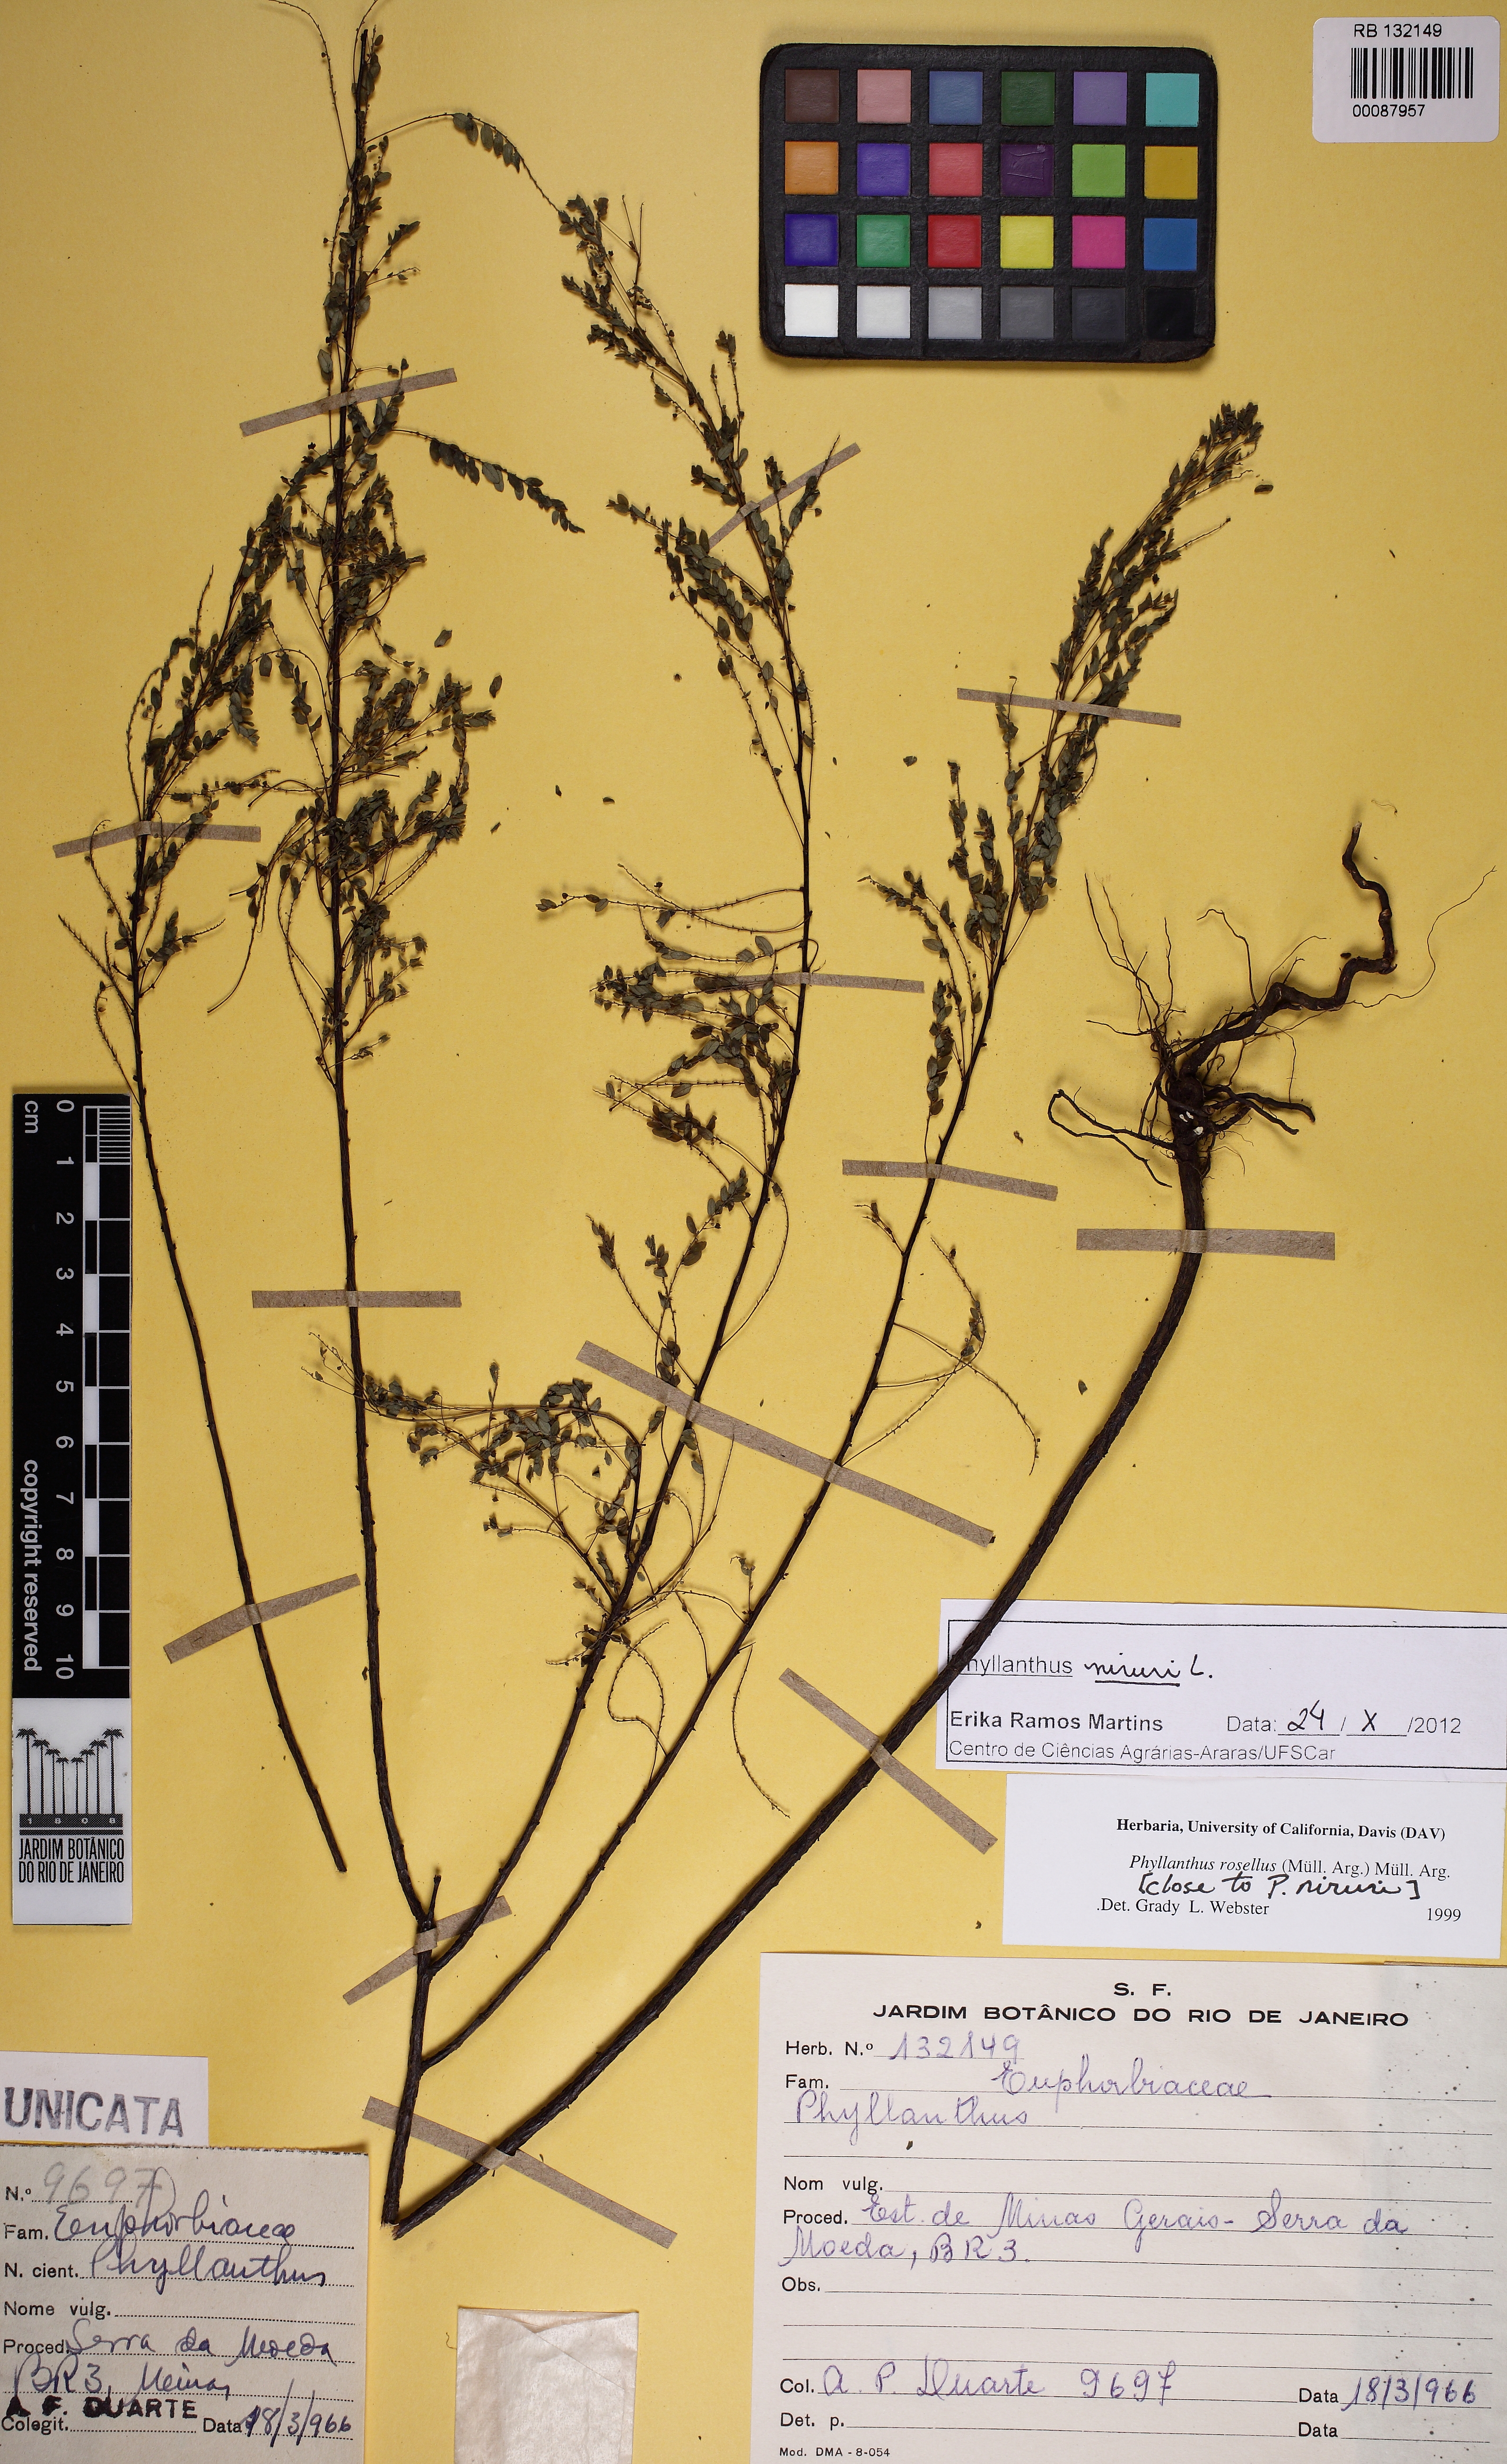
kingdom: Plantae
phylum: Tracheophyta
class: Magnoliopsida
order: Malpighiales
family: Phyllanthaceae
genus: Phyllanthus
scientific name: Phyllanthus niruri
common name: Niruri
